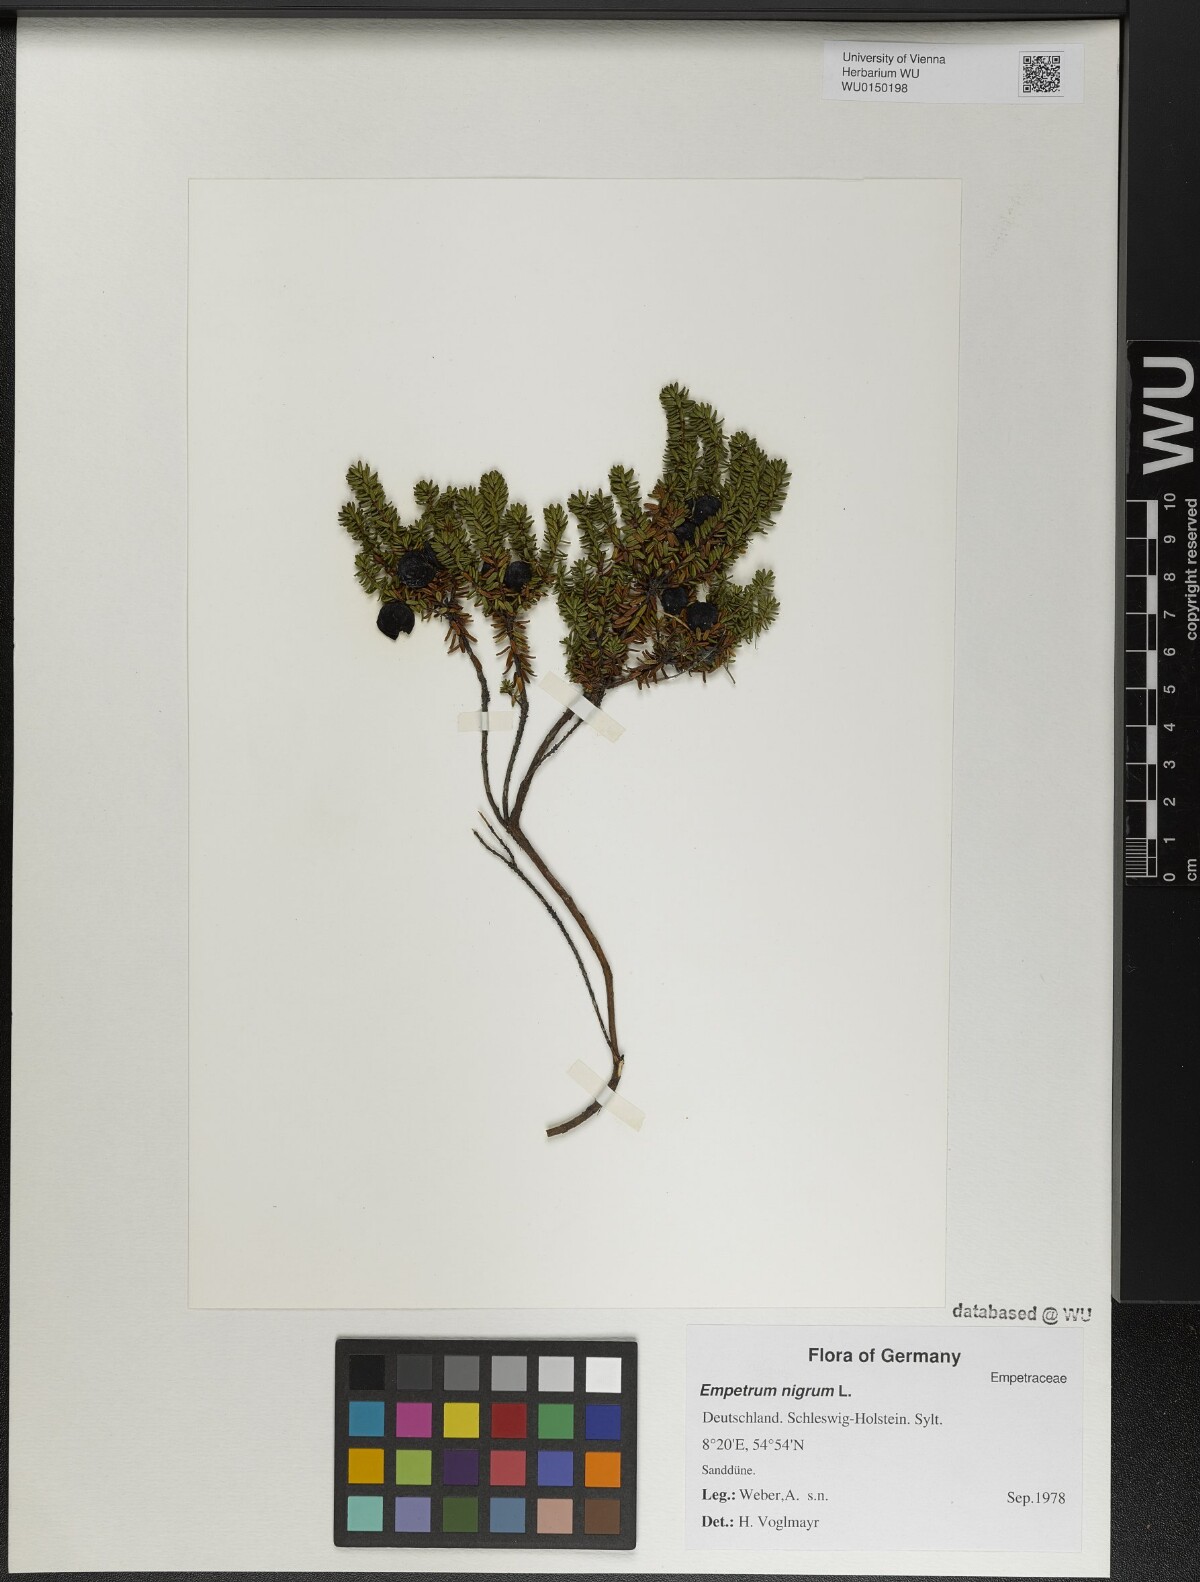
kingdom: Plantae
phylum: Tracheophyta
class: Magnoliopsida
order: Ericales
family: Ericaceae
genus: Empetrum
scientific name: Empetrum nigrum
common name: Black crowberry
